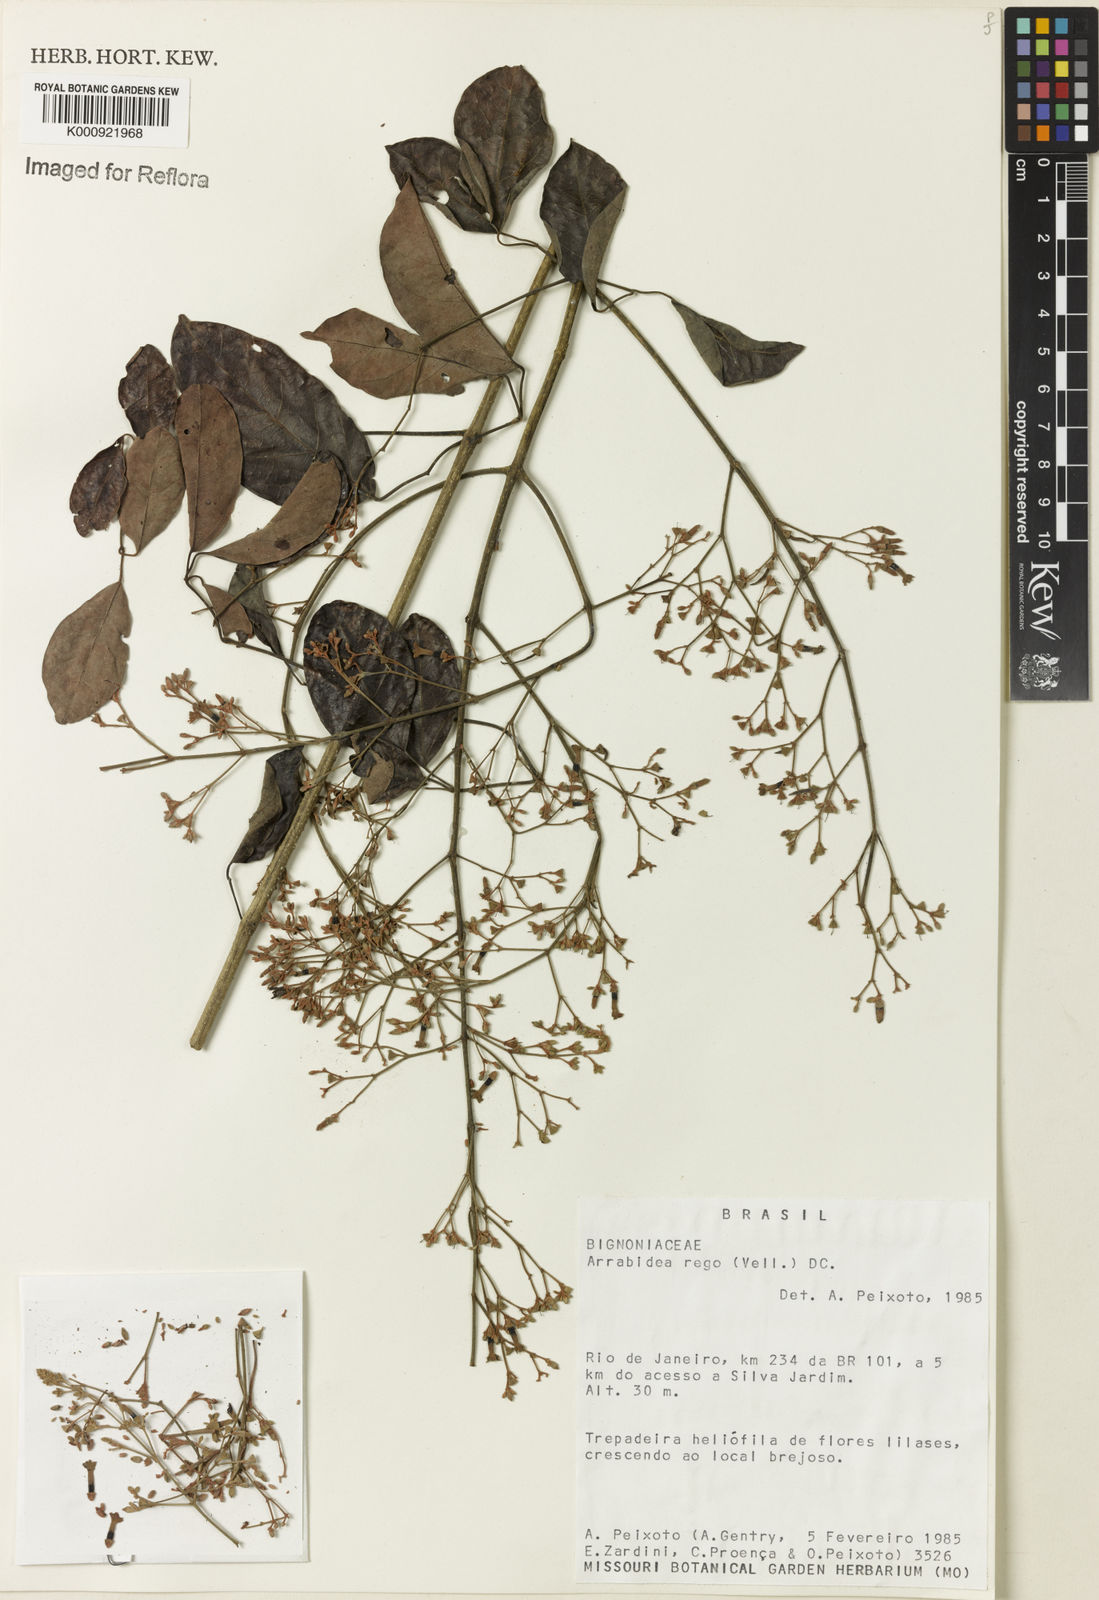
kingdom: Plantae
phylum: Tracheophyta
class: Magnoliopsida
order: Lamiales
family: Bignoniaceae
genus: Fridericia
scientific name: Fridericia rego
